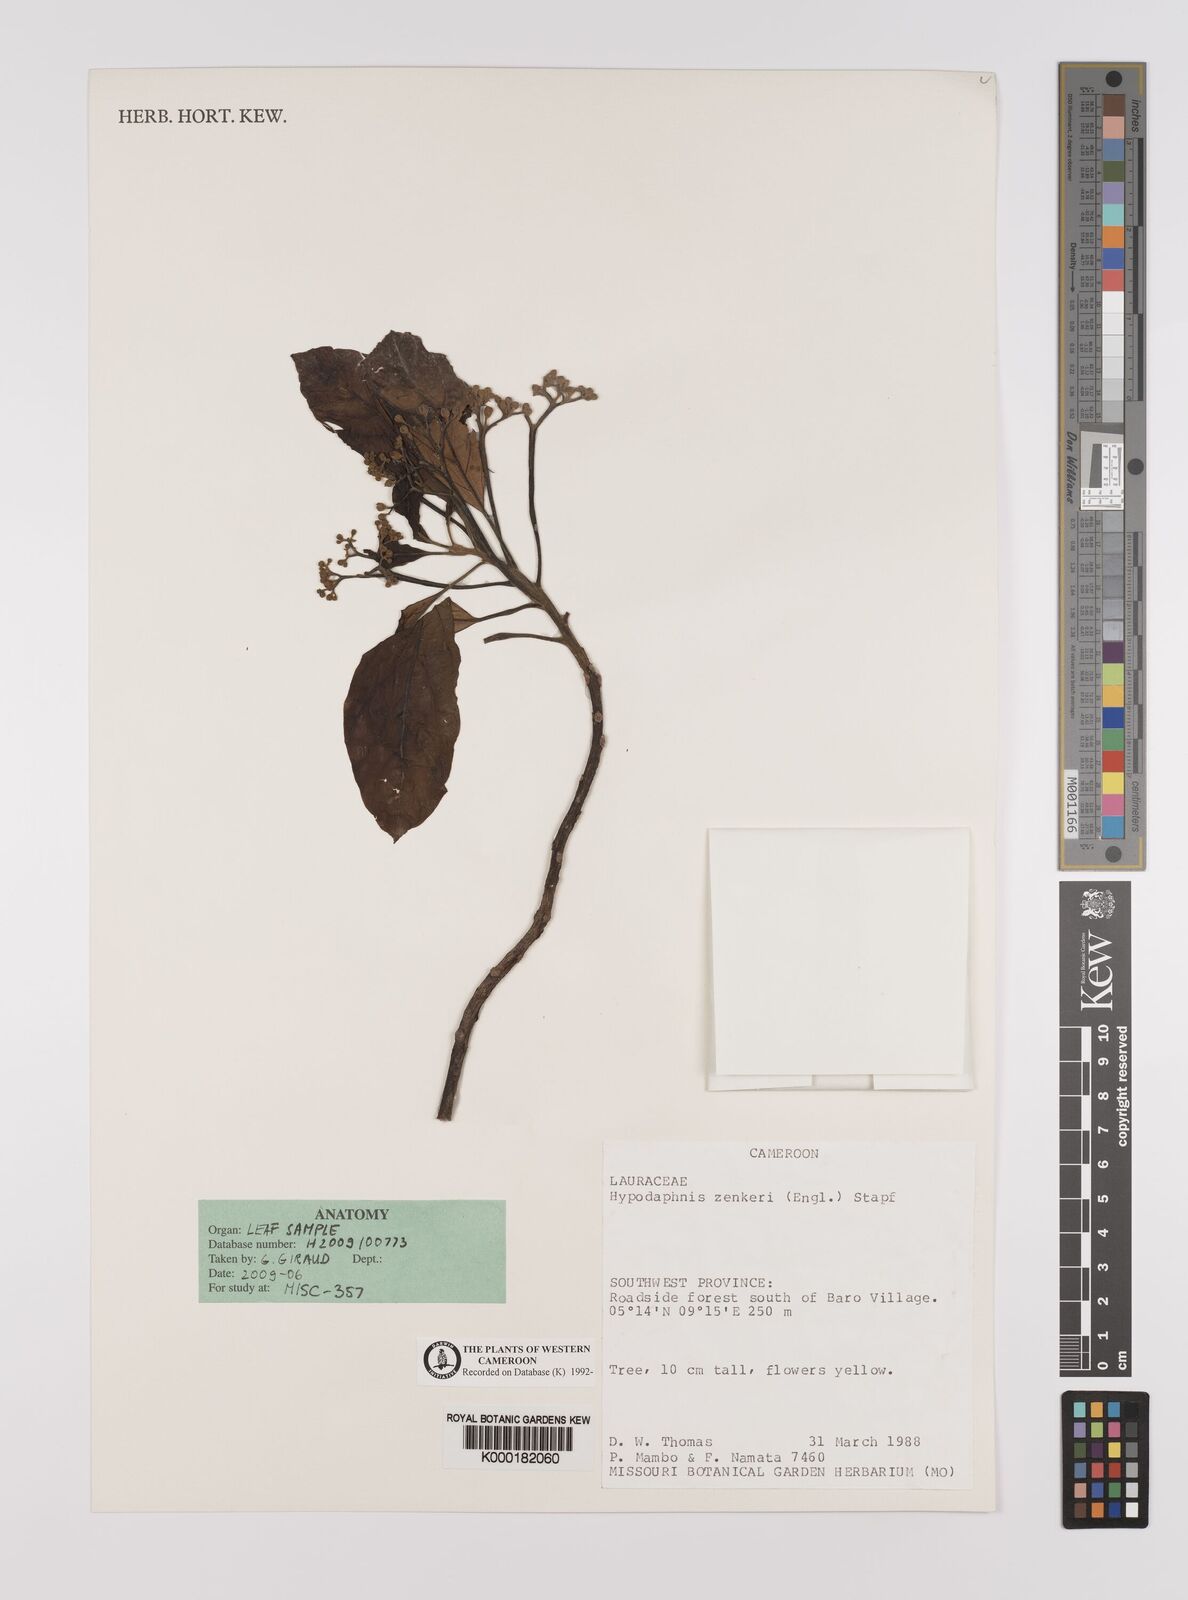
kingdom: Plantae
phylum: Tracheophyta
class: Magnoliopsida
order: Laurales
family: Lauraceae
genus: Hypodaphnis
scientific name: Hypodaphnis zenkeri
